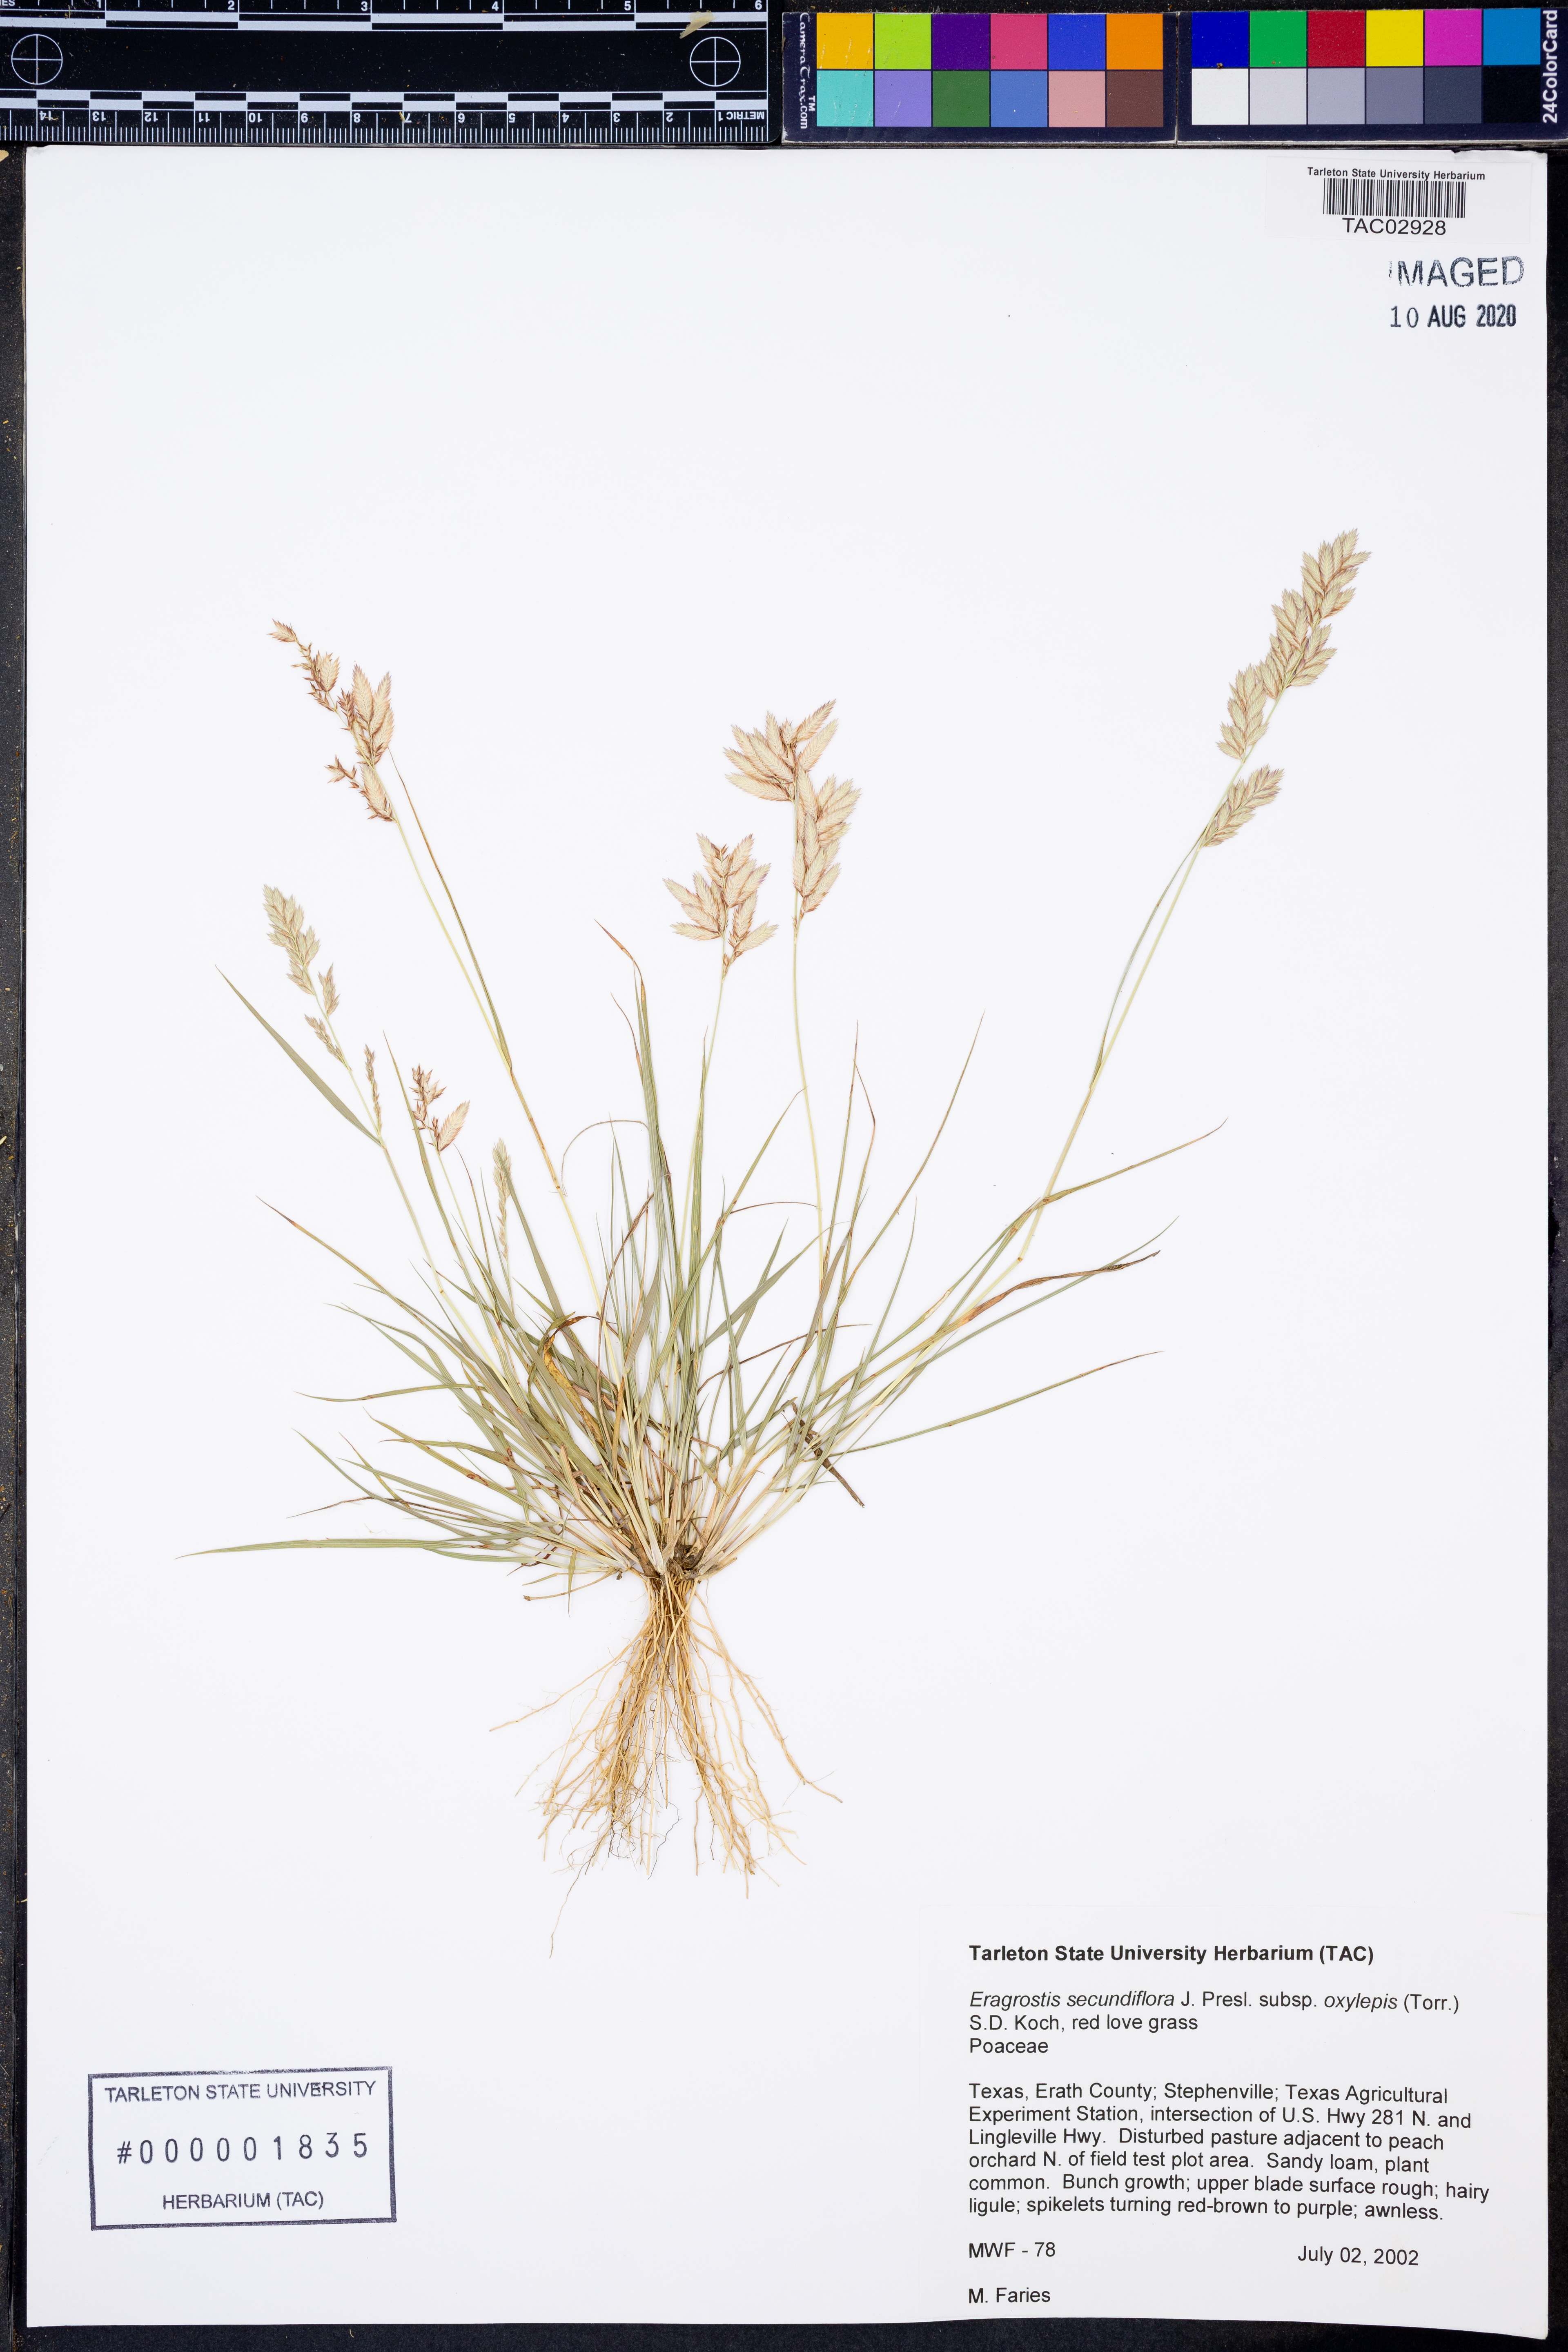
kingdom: Plantae
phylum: Tracheophyta
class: Liliopsida
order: Poales
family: Poaceae
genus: Eragrostis
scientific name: Eragrostis secundiflora
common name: Red love grass
